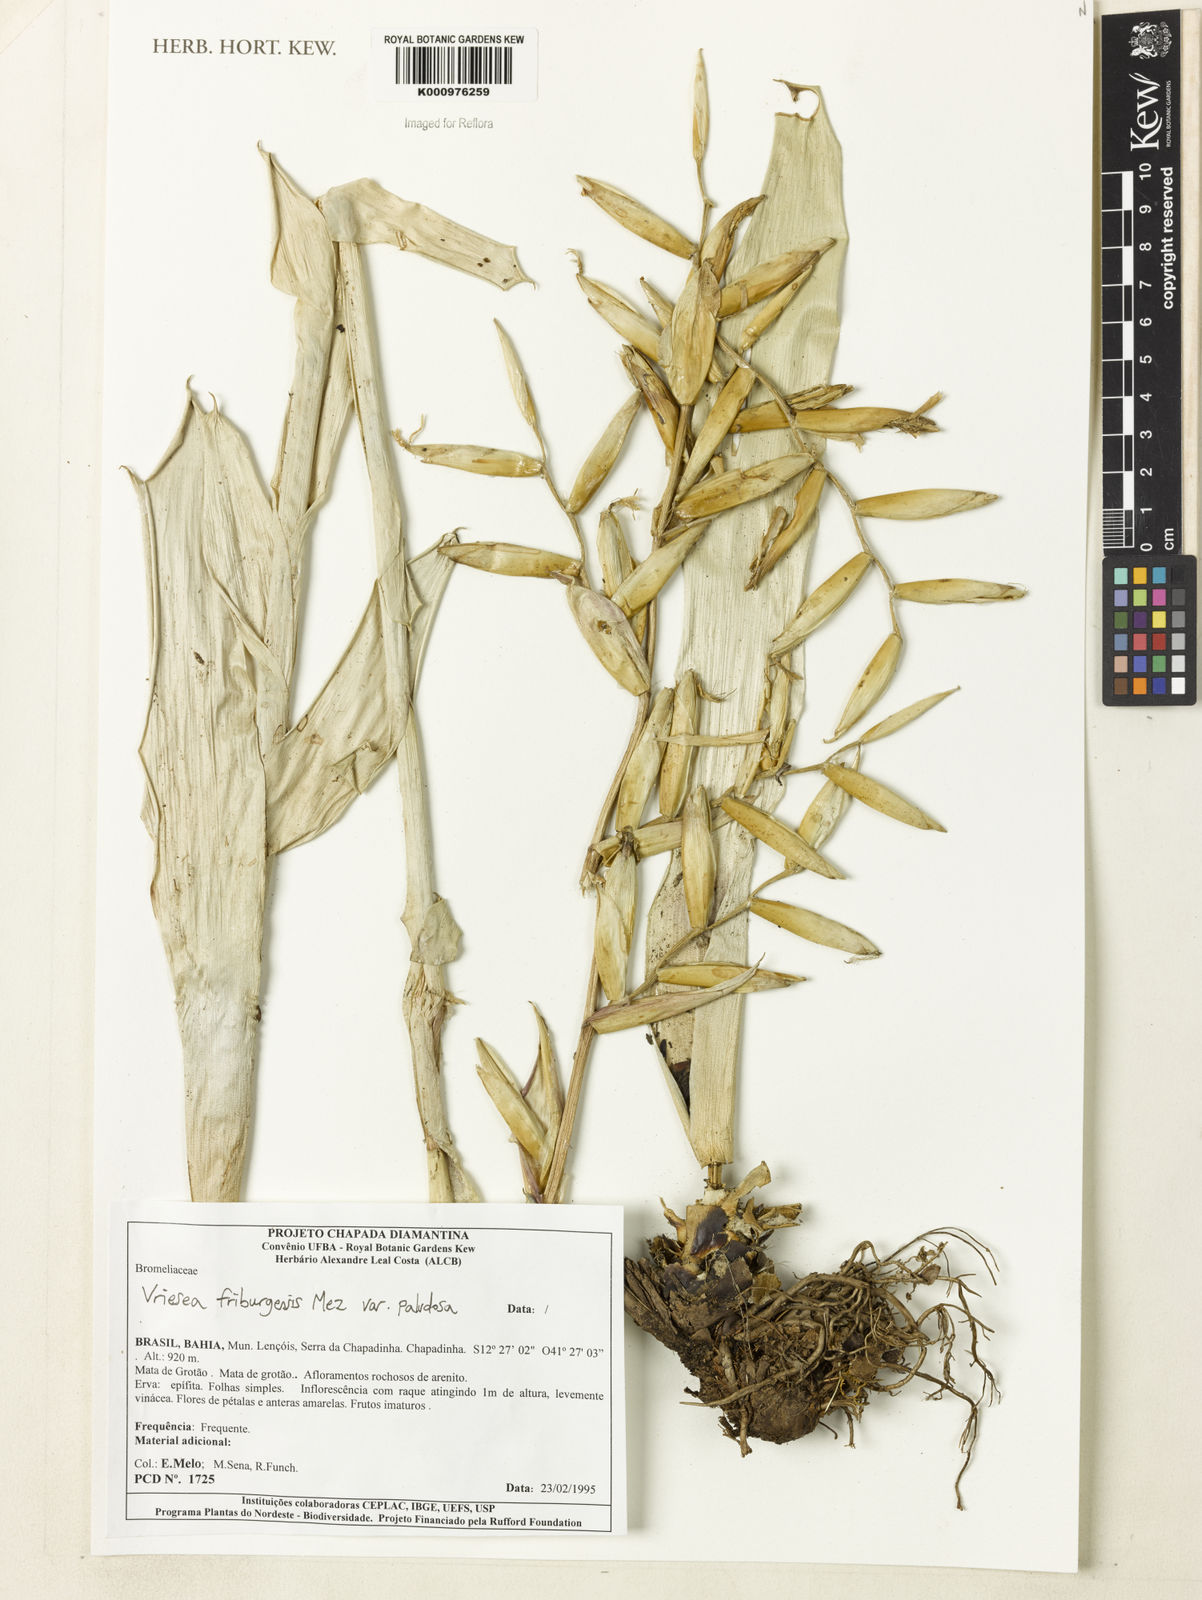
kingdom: Plantae
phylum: Tracheophyta
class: Liliopsida
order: Poales
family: Bromeliaceae
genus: Vriesea
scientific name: Vriesea friburgensis
